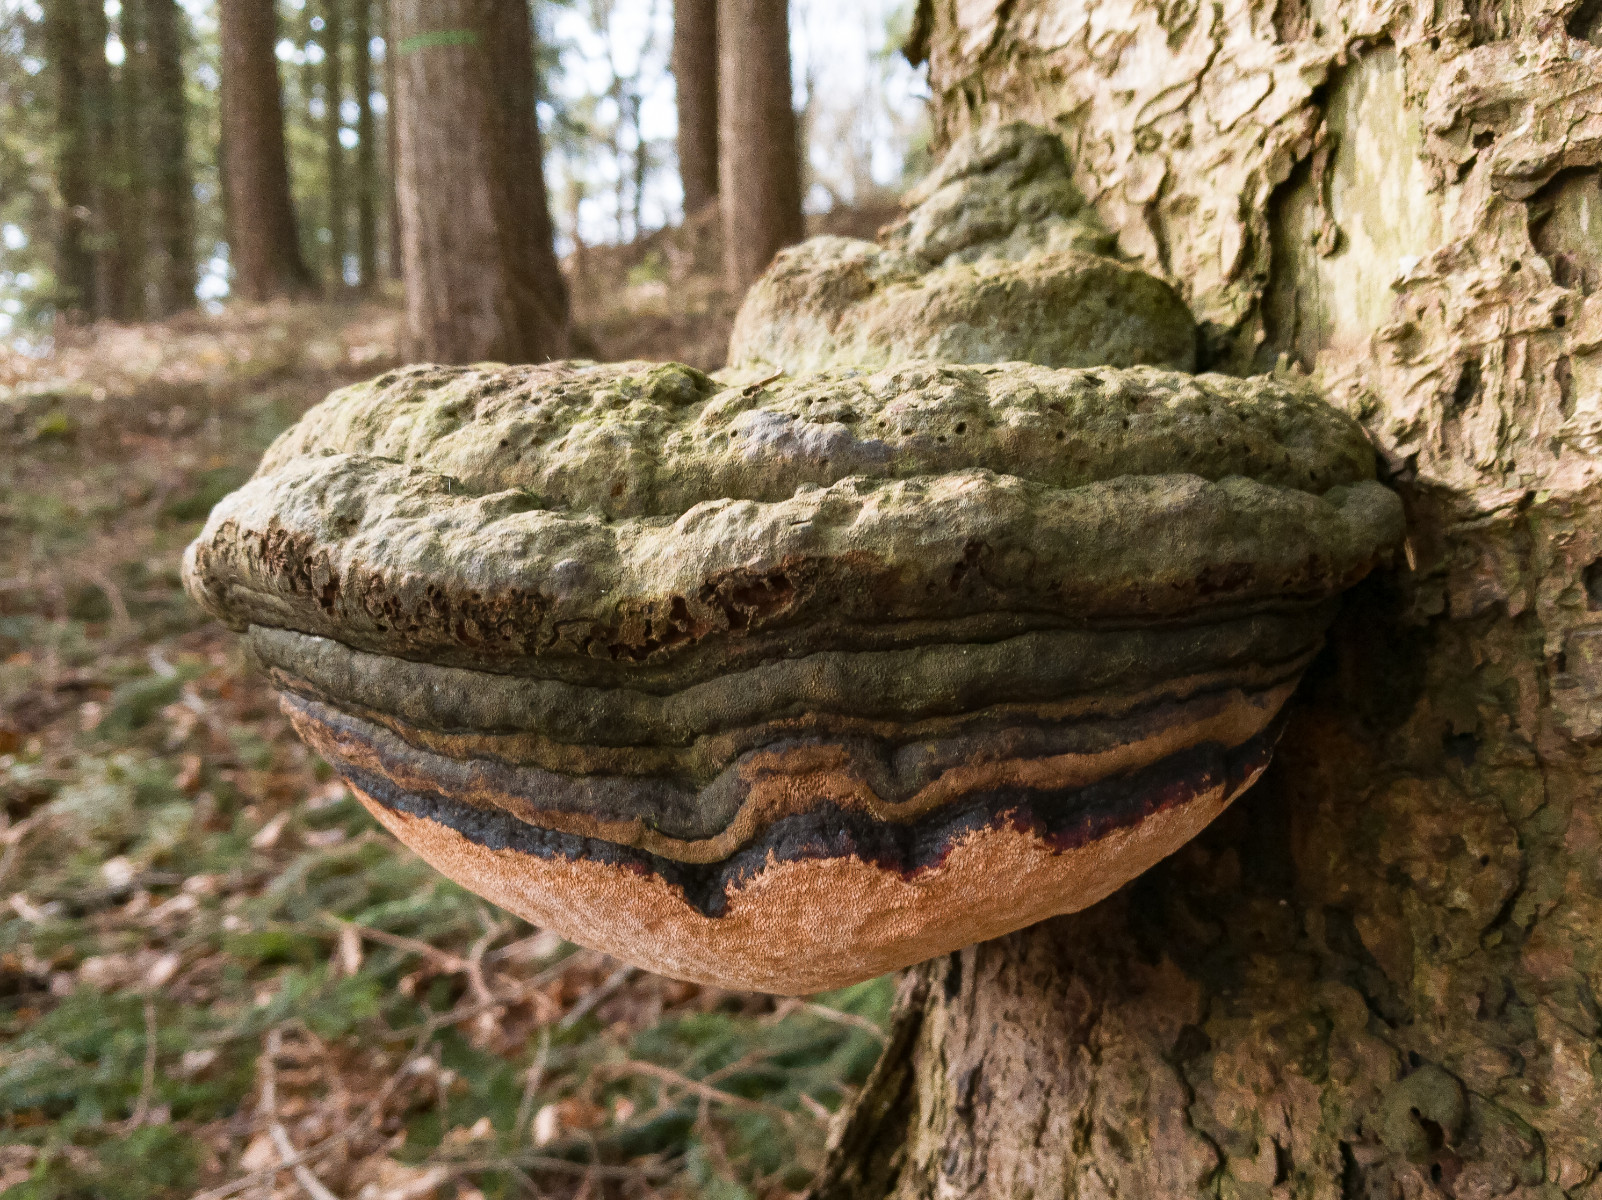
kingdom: Fungi
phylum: Basidiomycota
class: Agaricomycetes
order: Polyporales
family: Fomitopsidaceae
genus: Fomitopsis
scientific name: Fomitopsis pinicola
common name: randbæltet hovporesvamp
